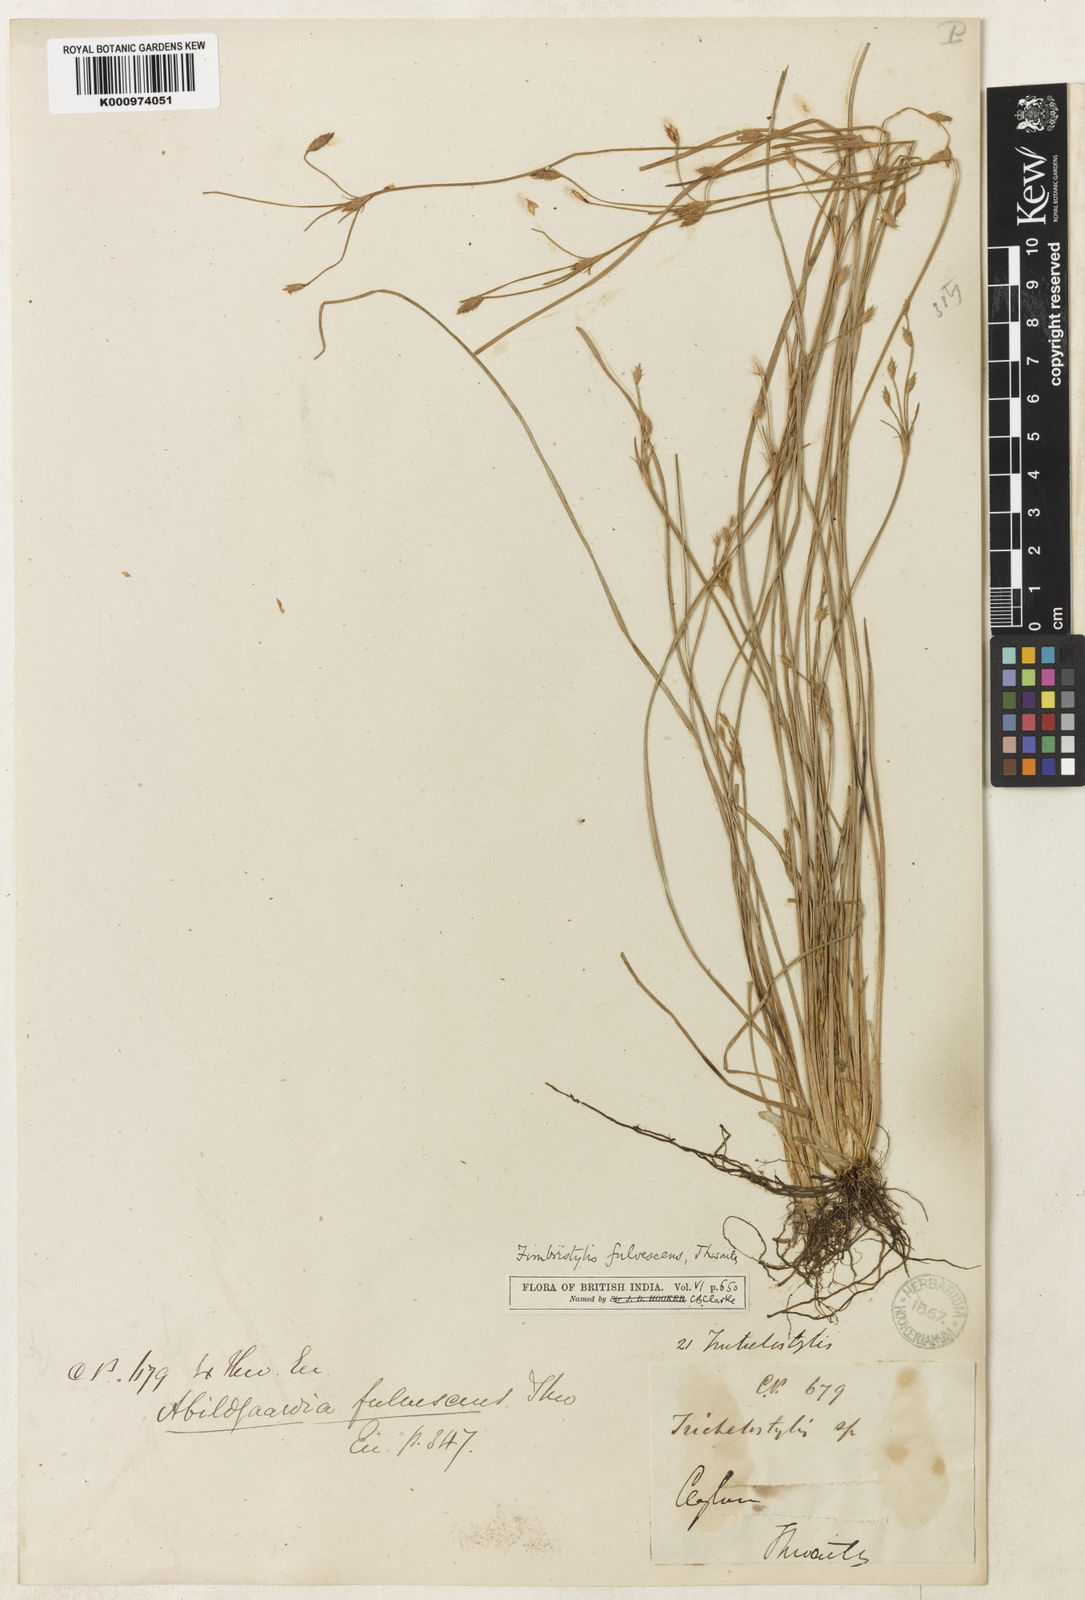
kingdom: Plantae
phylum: Tracheophyta
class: Liliopsida
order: Poales
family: Cyperaceae
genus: Fimbristylis
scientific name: Fimbristylis fulvescens
